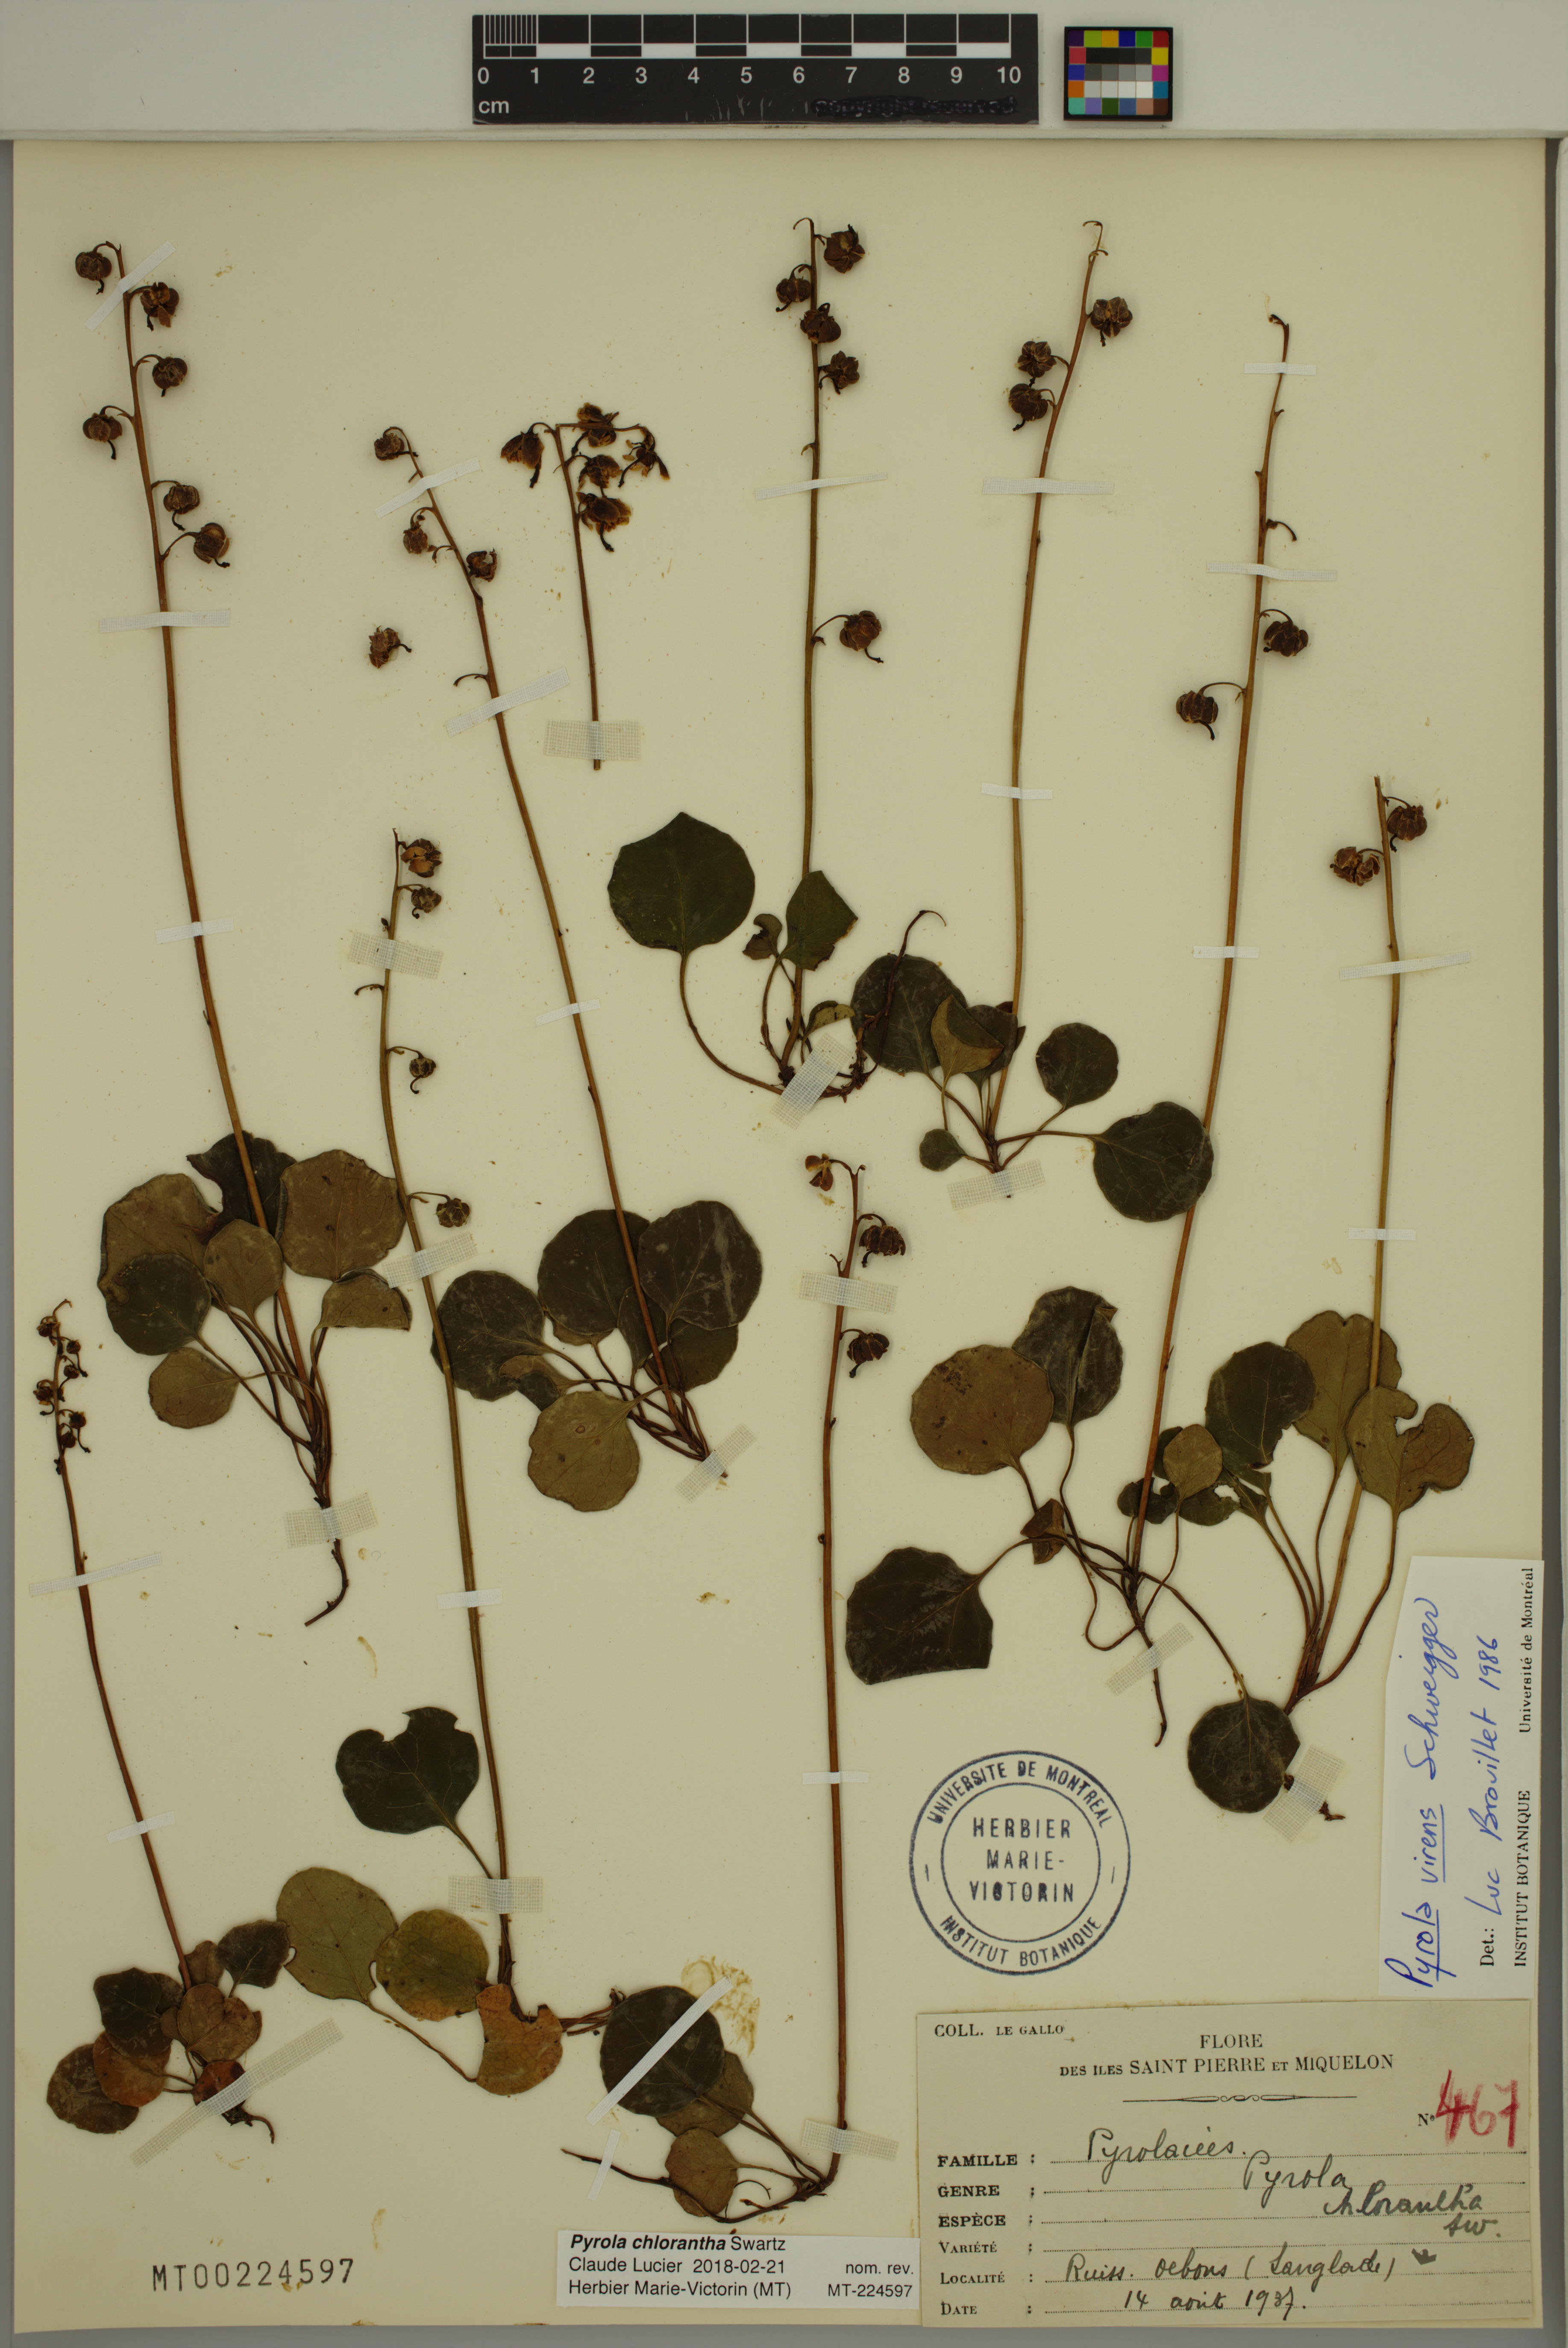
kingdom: Plantae
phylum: Tracheophyta
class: Magnoliopsida
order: Ericales
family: Ericaceae
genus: Pyrola
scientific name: Pyrola chlorantha
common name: Green wintergreen
